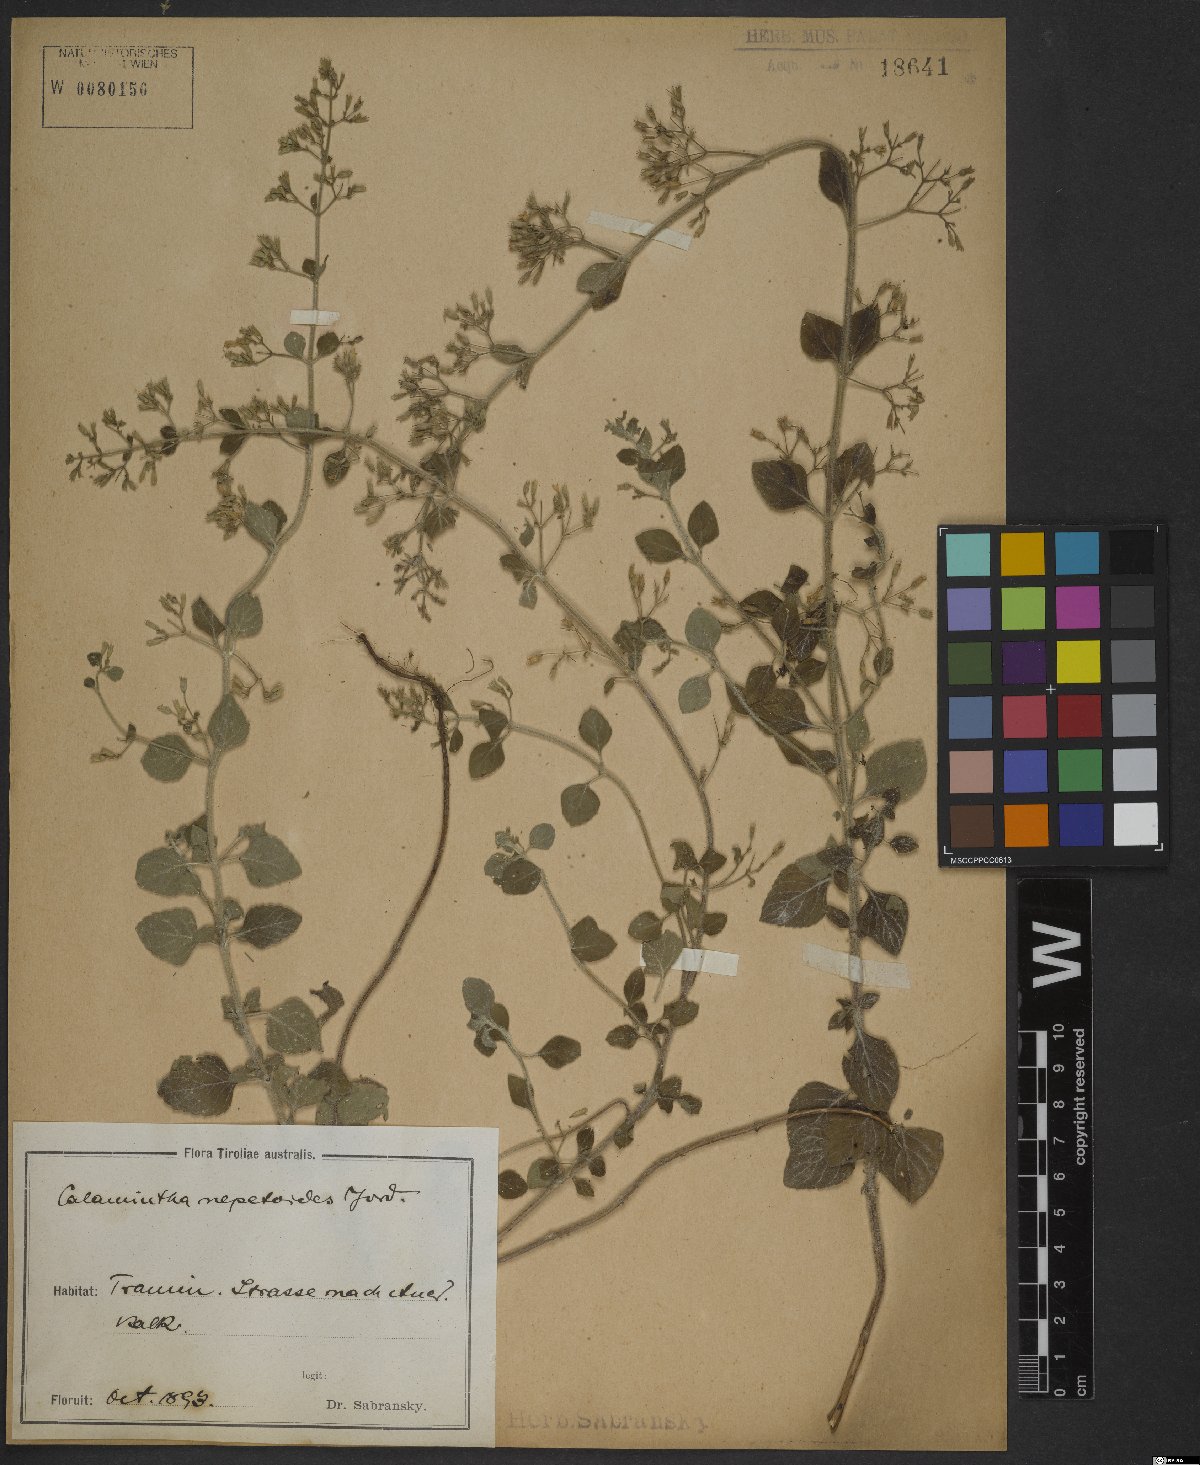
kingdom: Plantae
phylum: Tracheophyta
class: Magnoliopsida
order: Lamiales
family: Lamiaceae
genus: Clinopodium
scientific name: Clinopodium nepeta
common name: Lesser calamint
